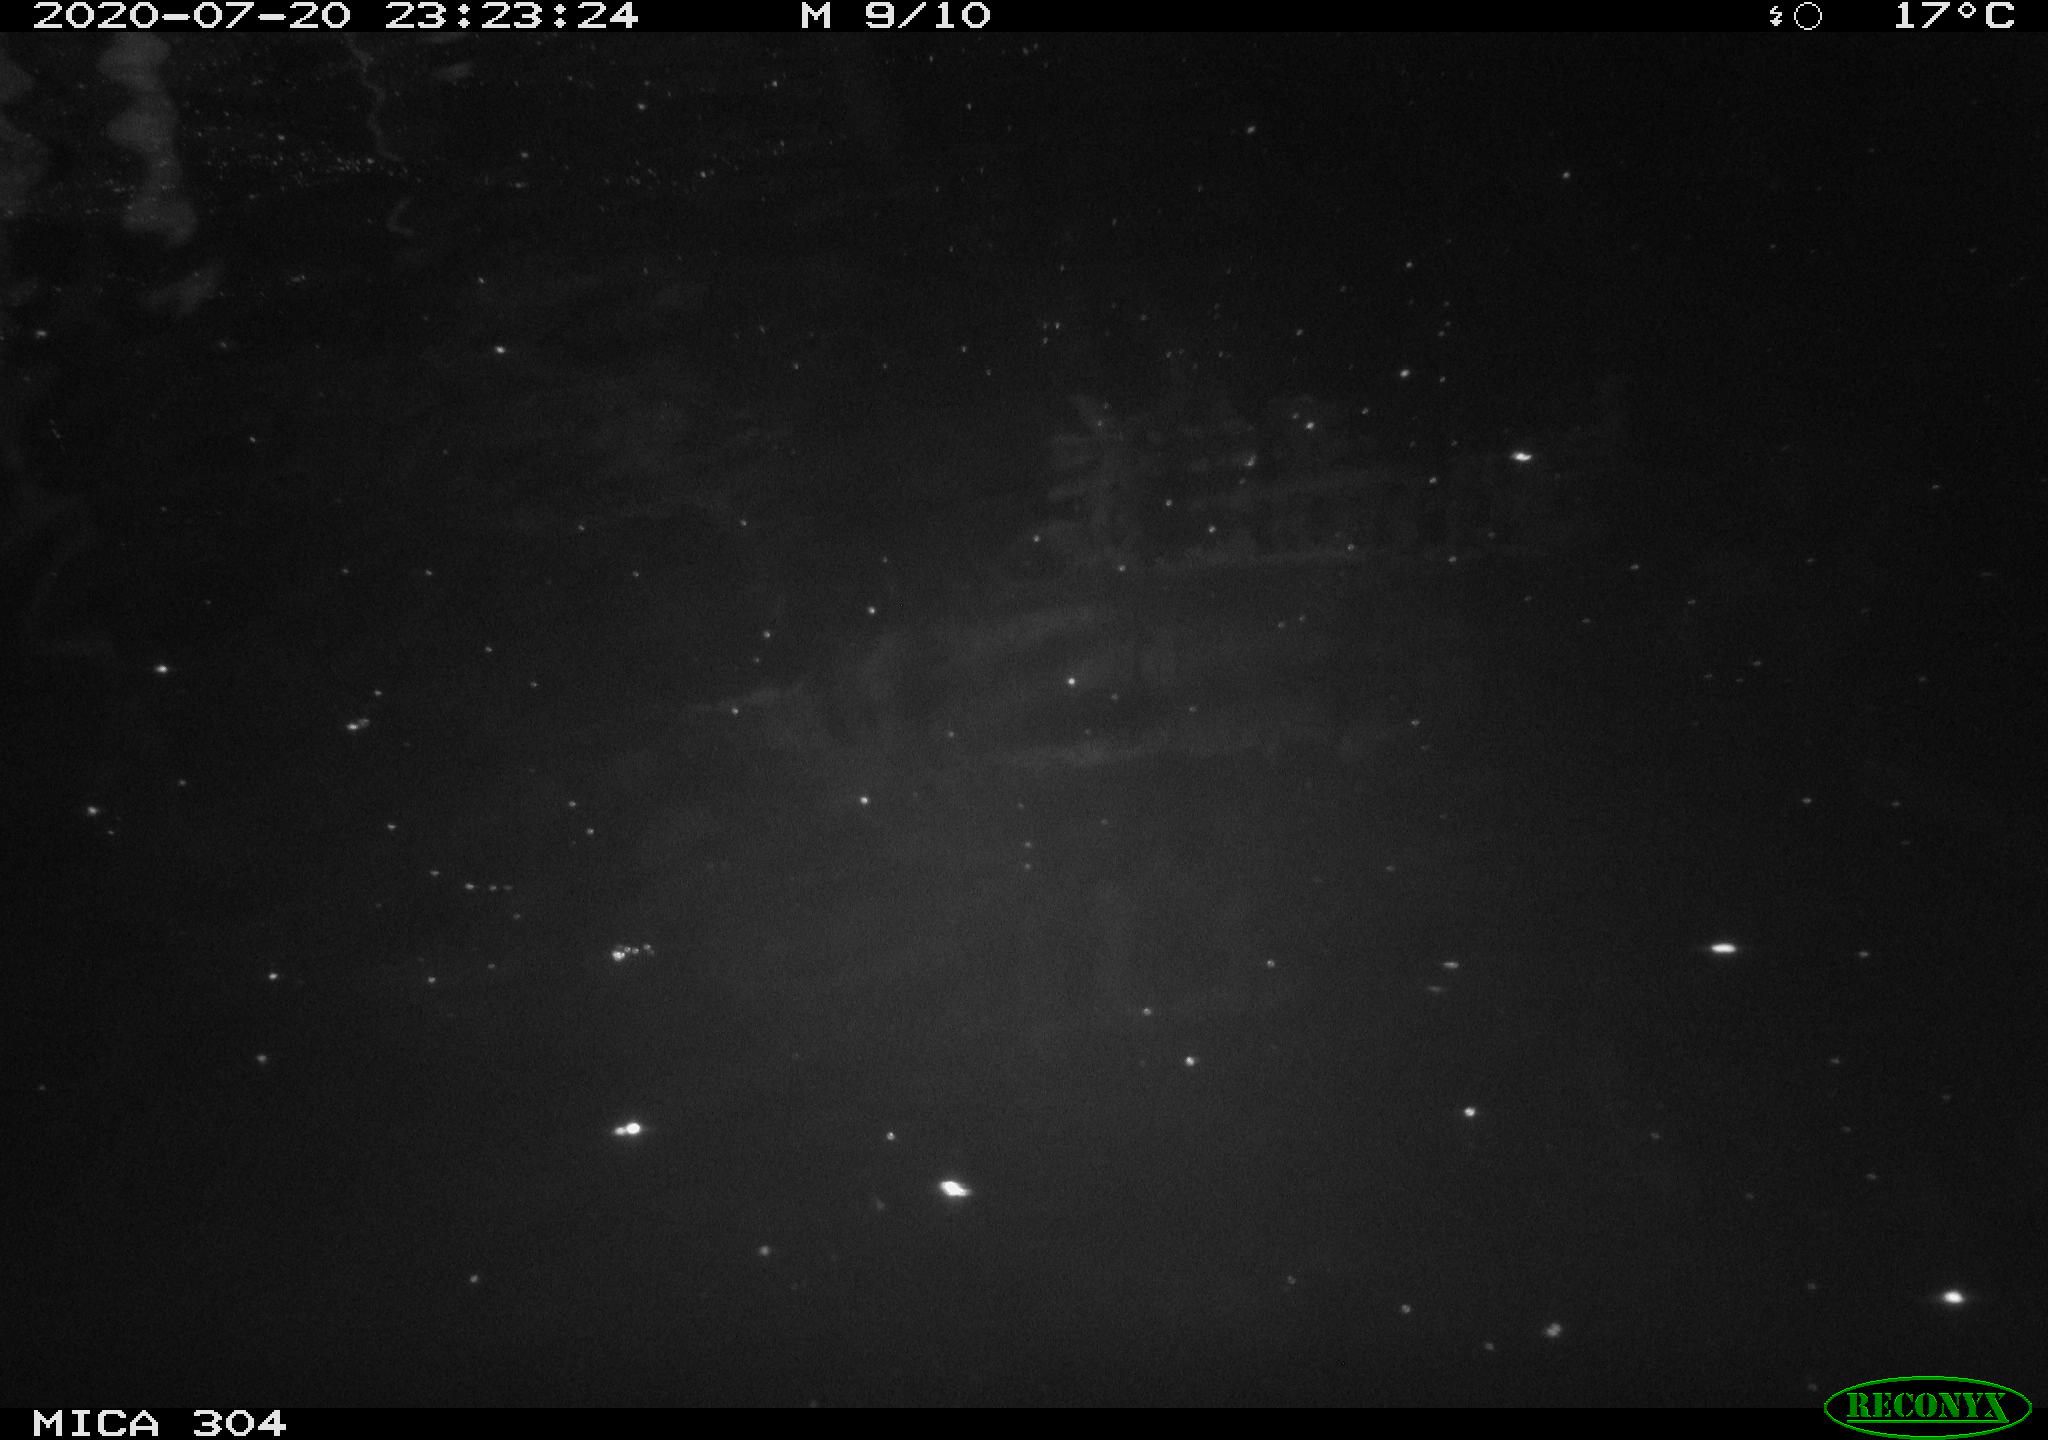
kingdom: Animalia
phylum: Chordata
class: Mammalia
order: Rodentia
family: Cricetidae
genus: Ondatra
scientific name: Ondatra zibethicus
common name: Muskrat
